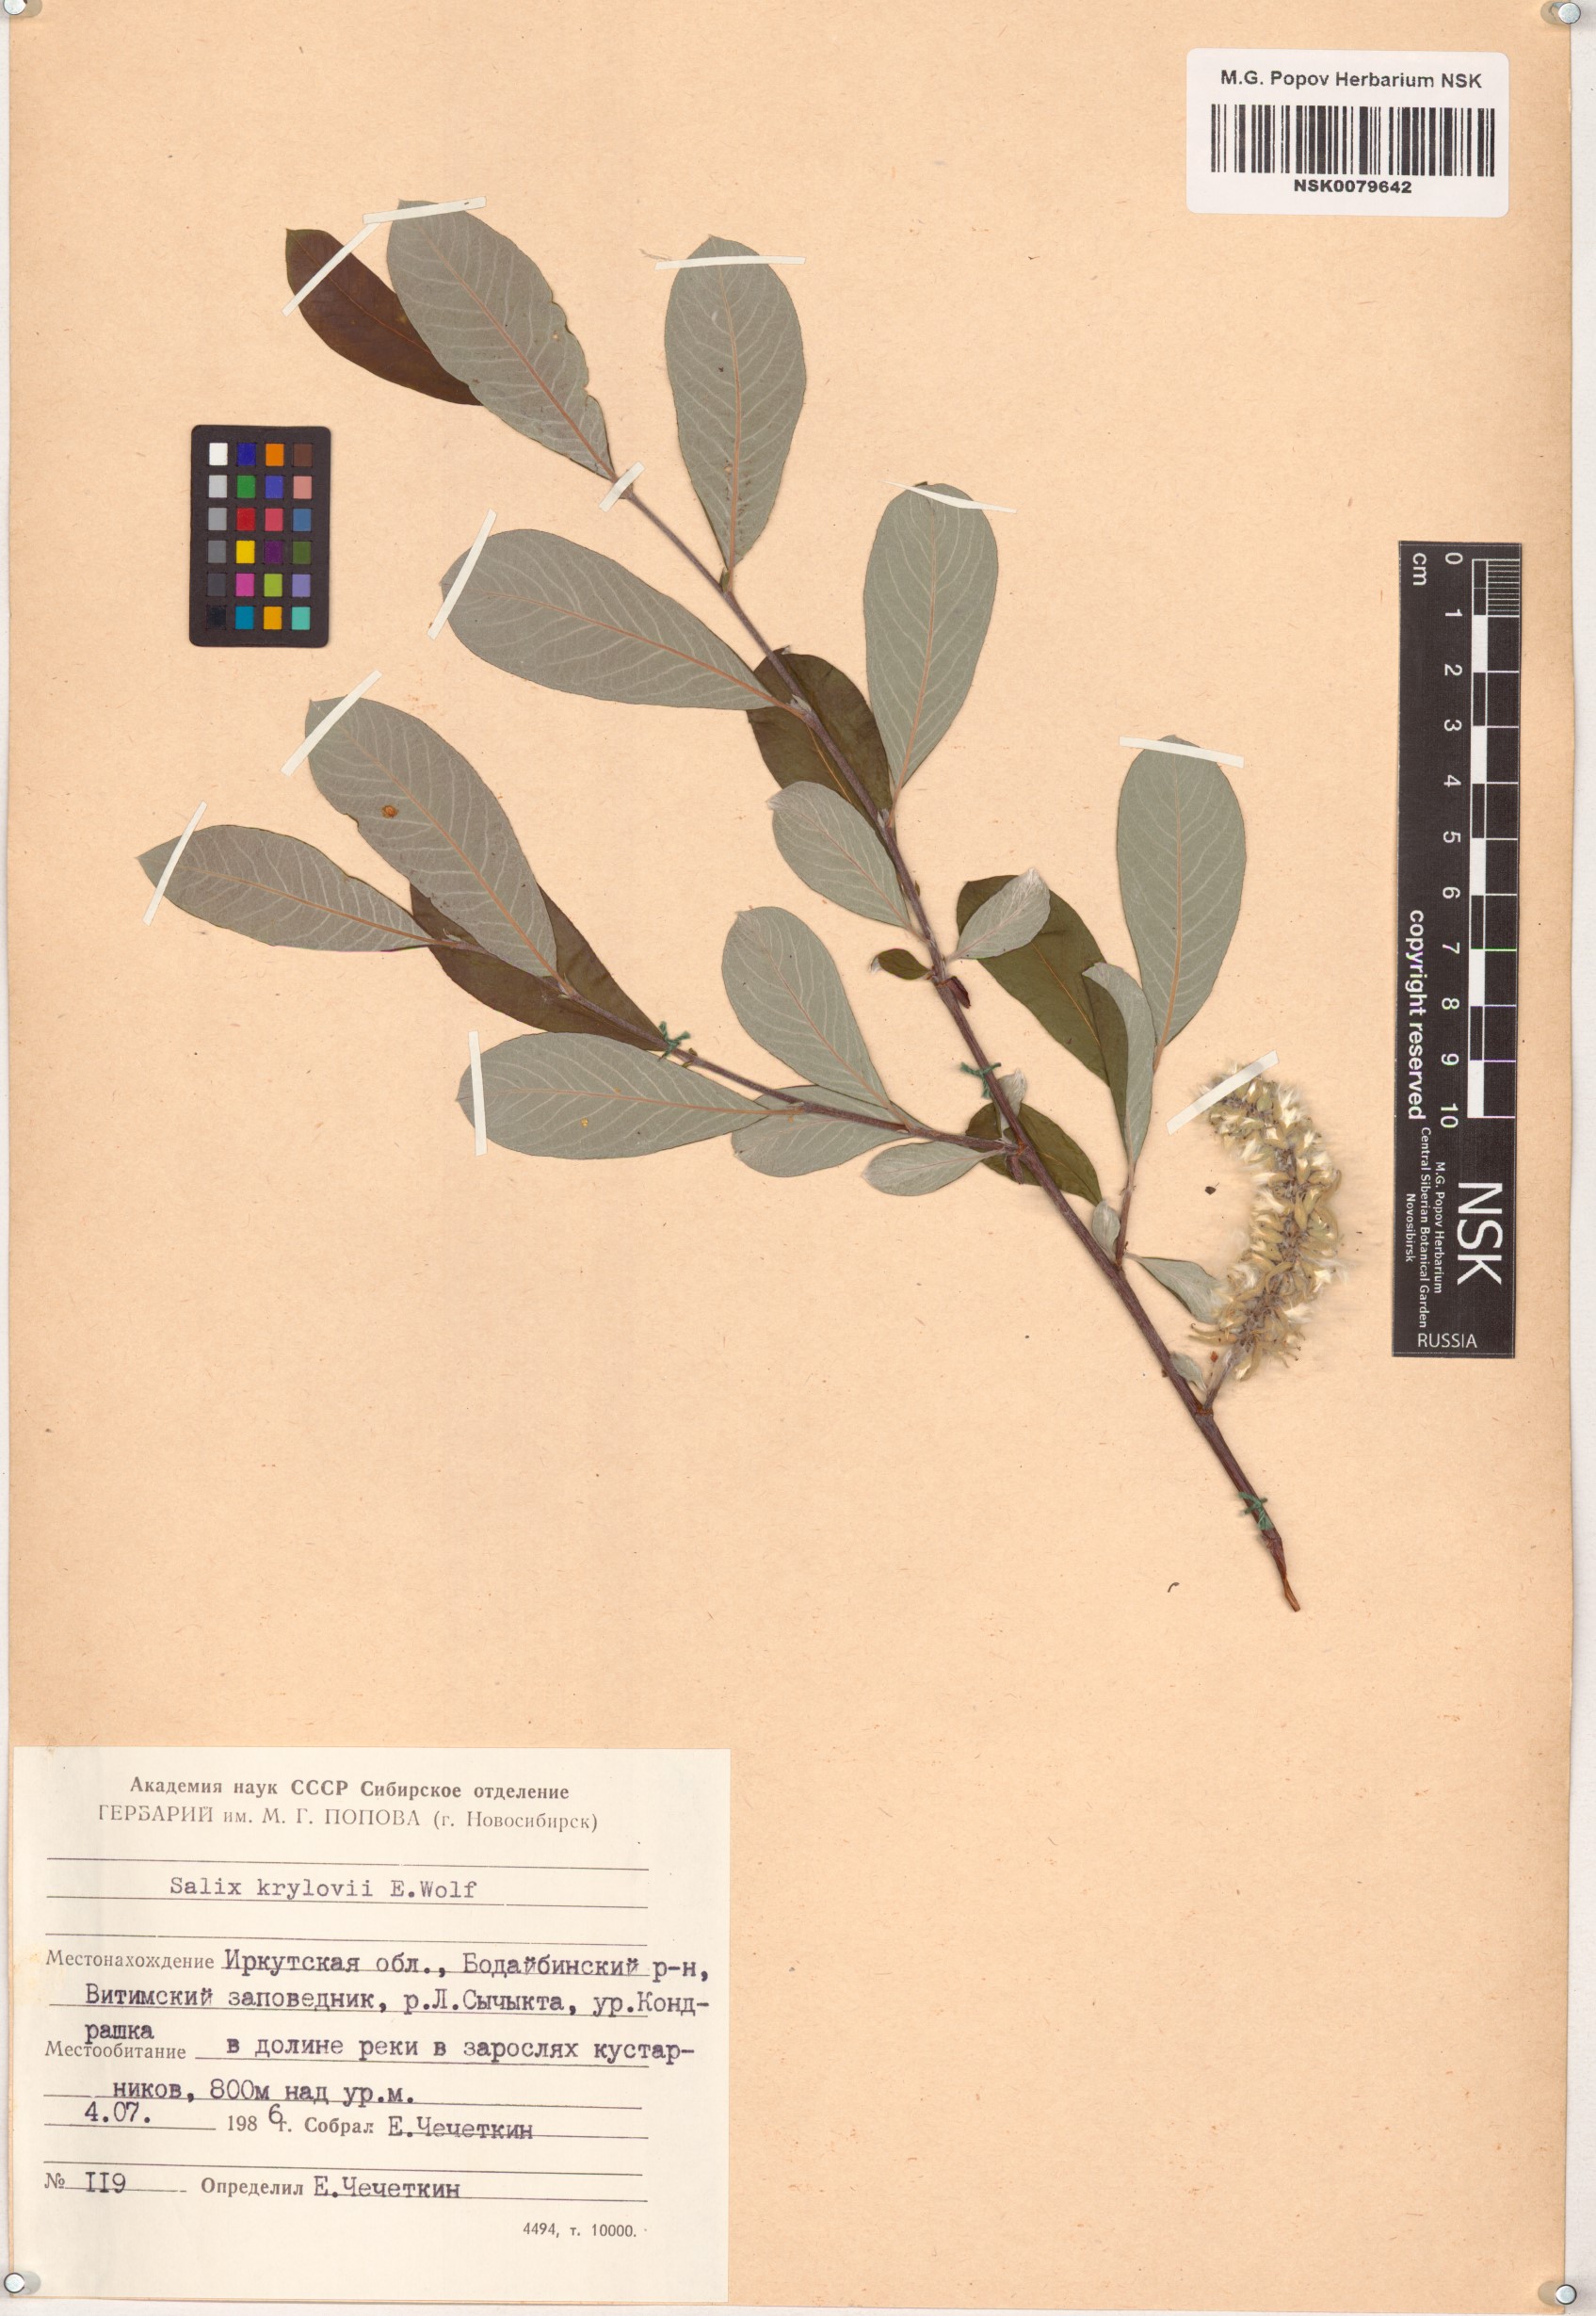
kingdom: Plantae
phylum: Tracheophyta
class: Magnoliopsida
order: Malpighiales
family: Salicaceae
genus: Salix
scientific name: Salix krylovii
